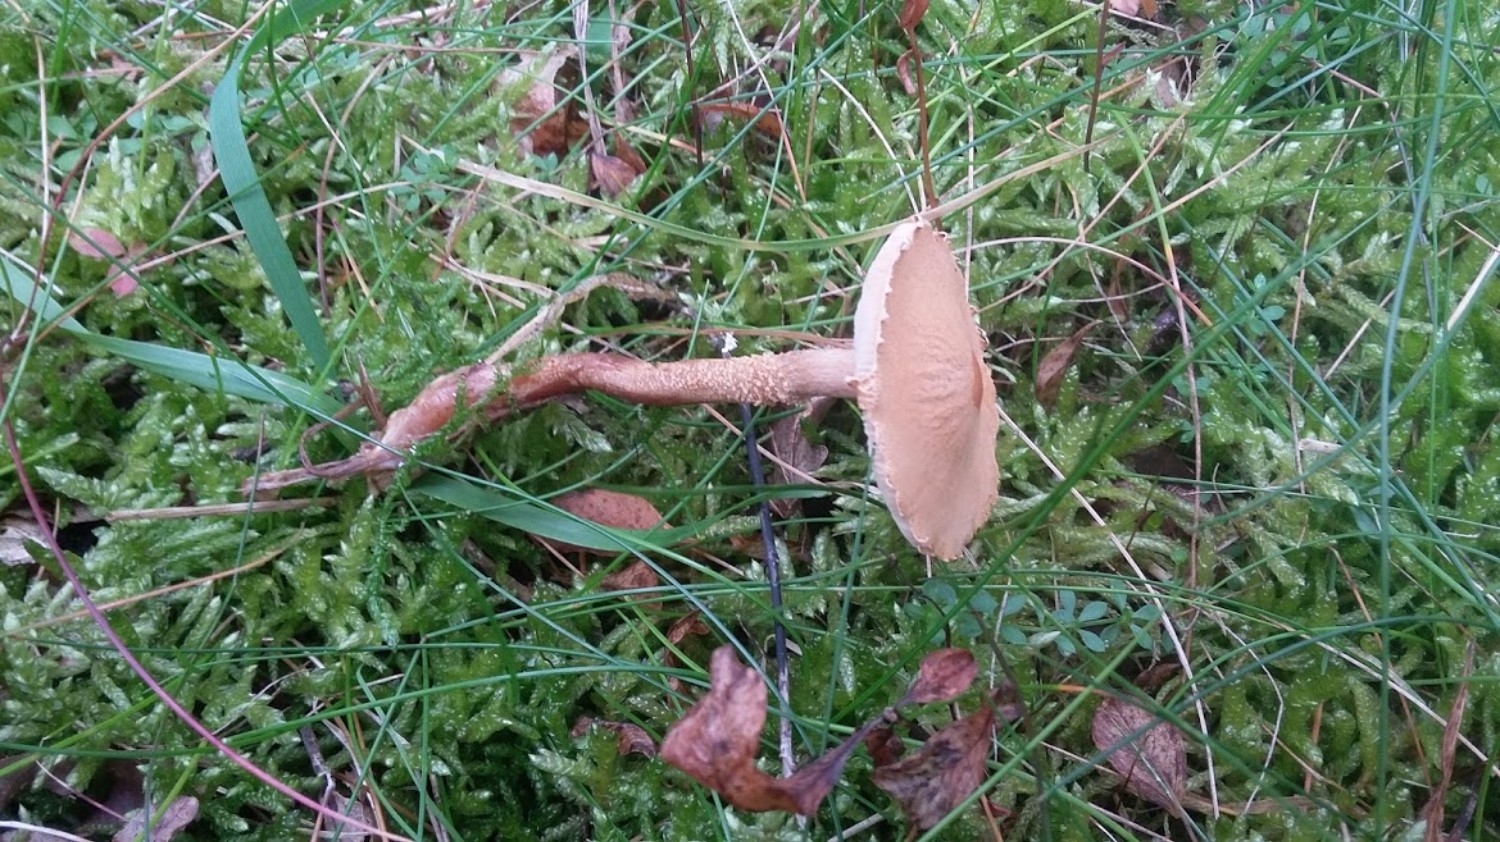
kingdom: Fungi
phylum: Basidiomycota
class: Agaricomycetes
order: Agaricales
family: Tricholomataceae
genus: Cystoderma
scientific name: Cystoderma
